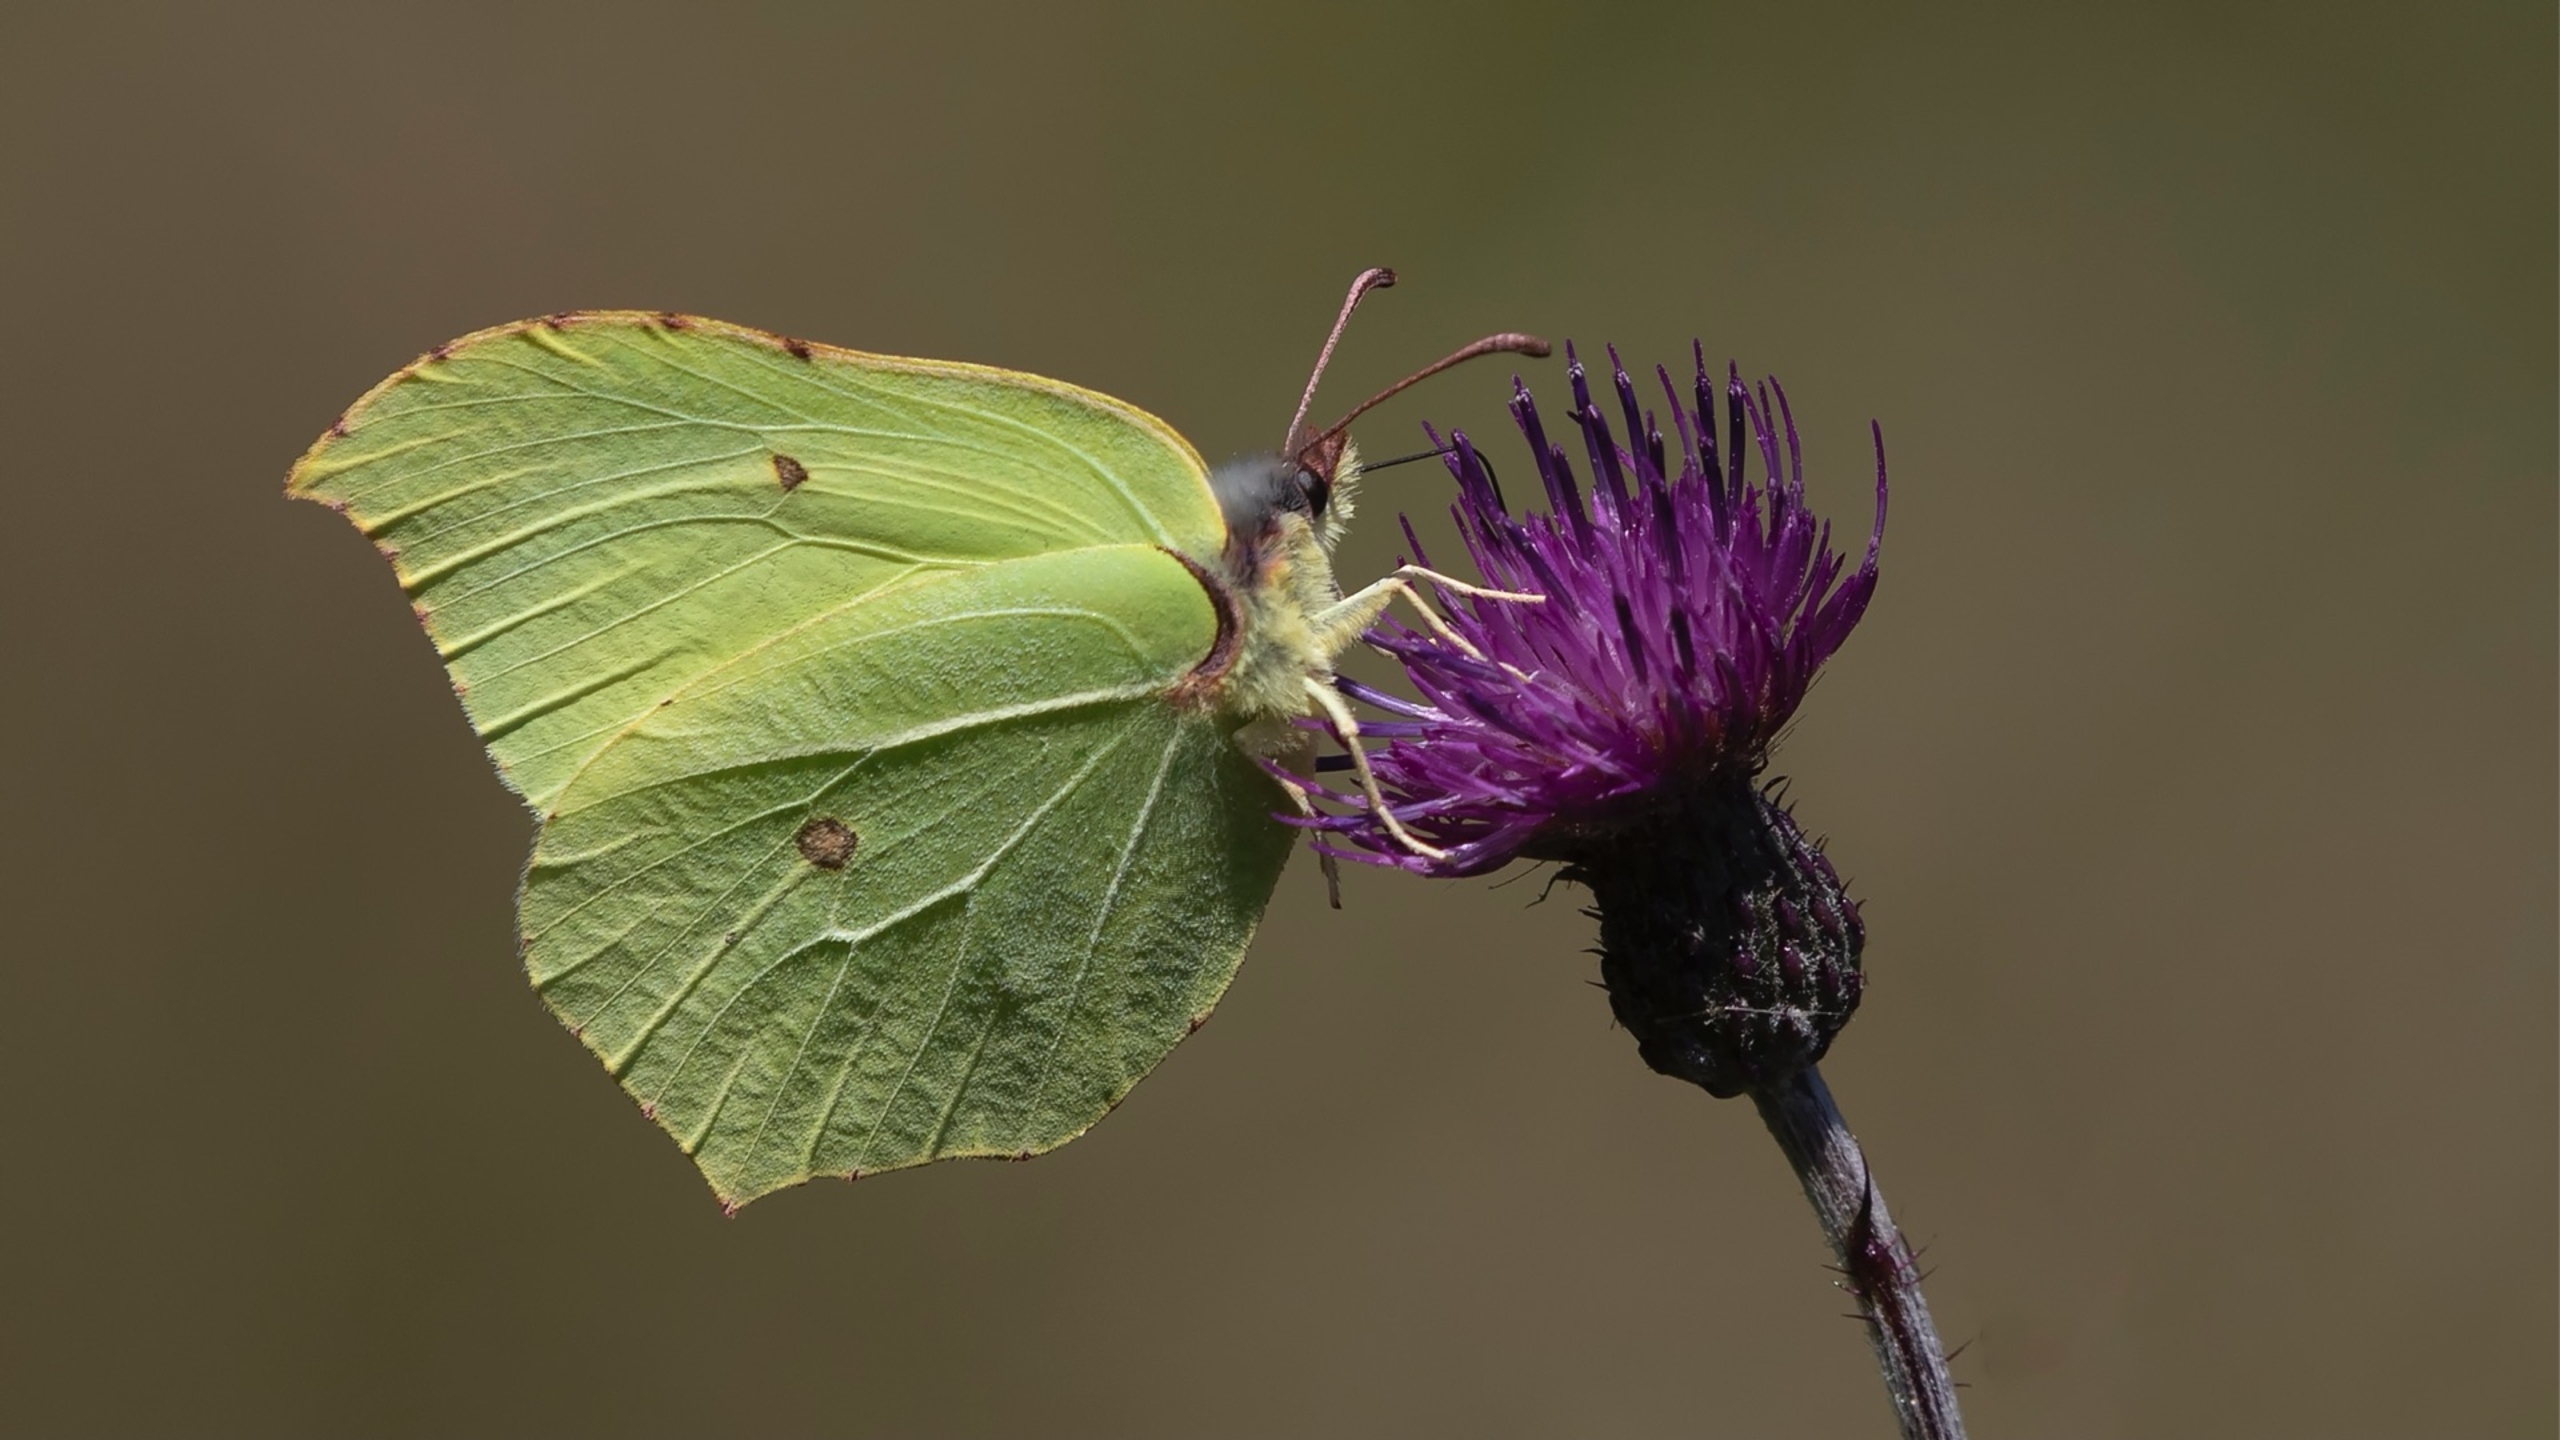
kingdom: Animalia
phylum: Arthropoda
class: Insecta
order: Lepidoptera
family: Pieridae
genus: Gonepteryx
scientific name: Gonepteryx rhamni
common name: Citronsommerfugl
